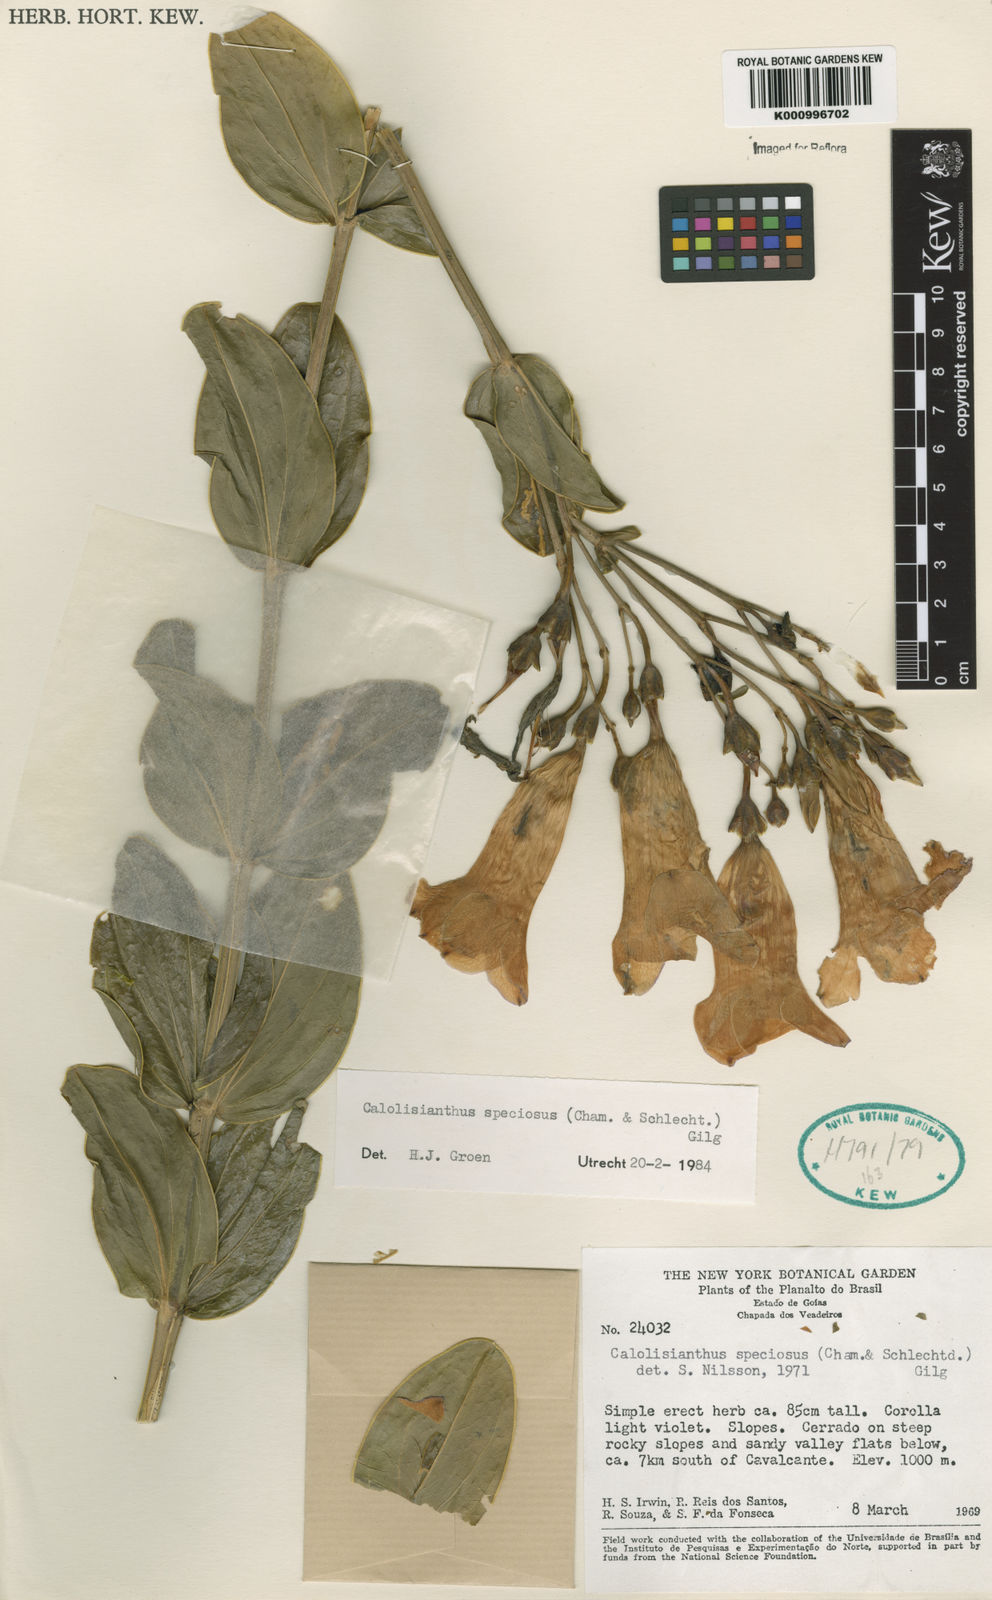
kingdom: Plantae
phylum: Tracheophyta
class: Magnoliopsida
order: Gentianales
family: Gentianaceae
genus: Calolisianthus
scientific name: Calolisianthus speciosus
